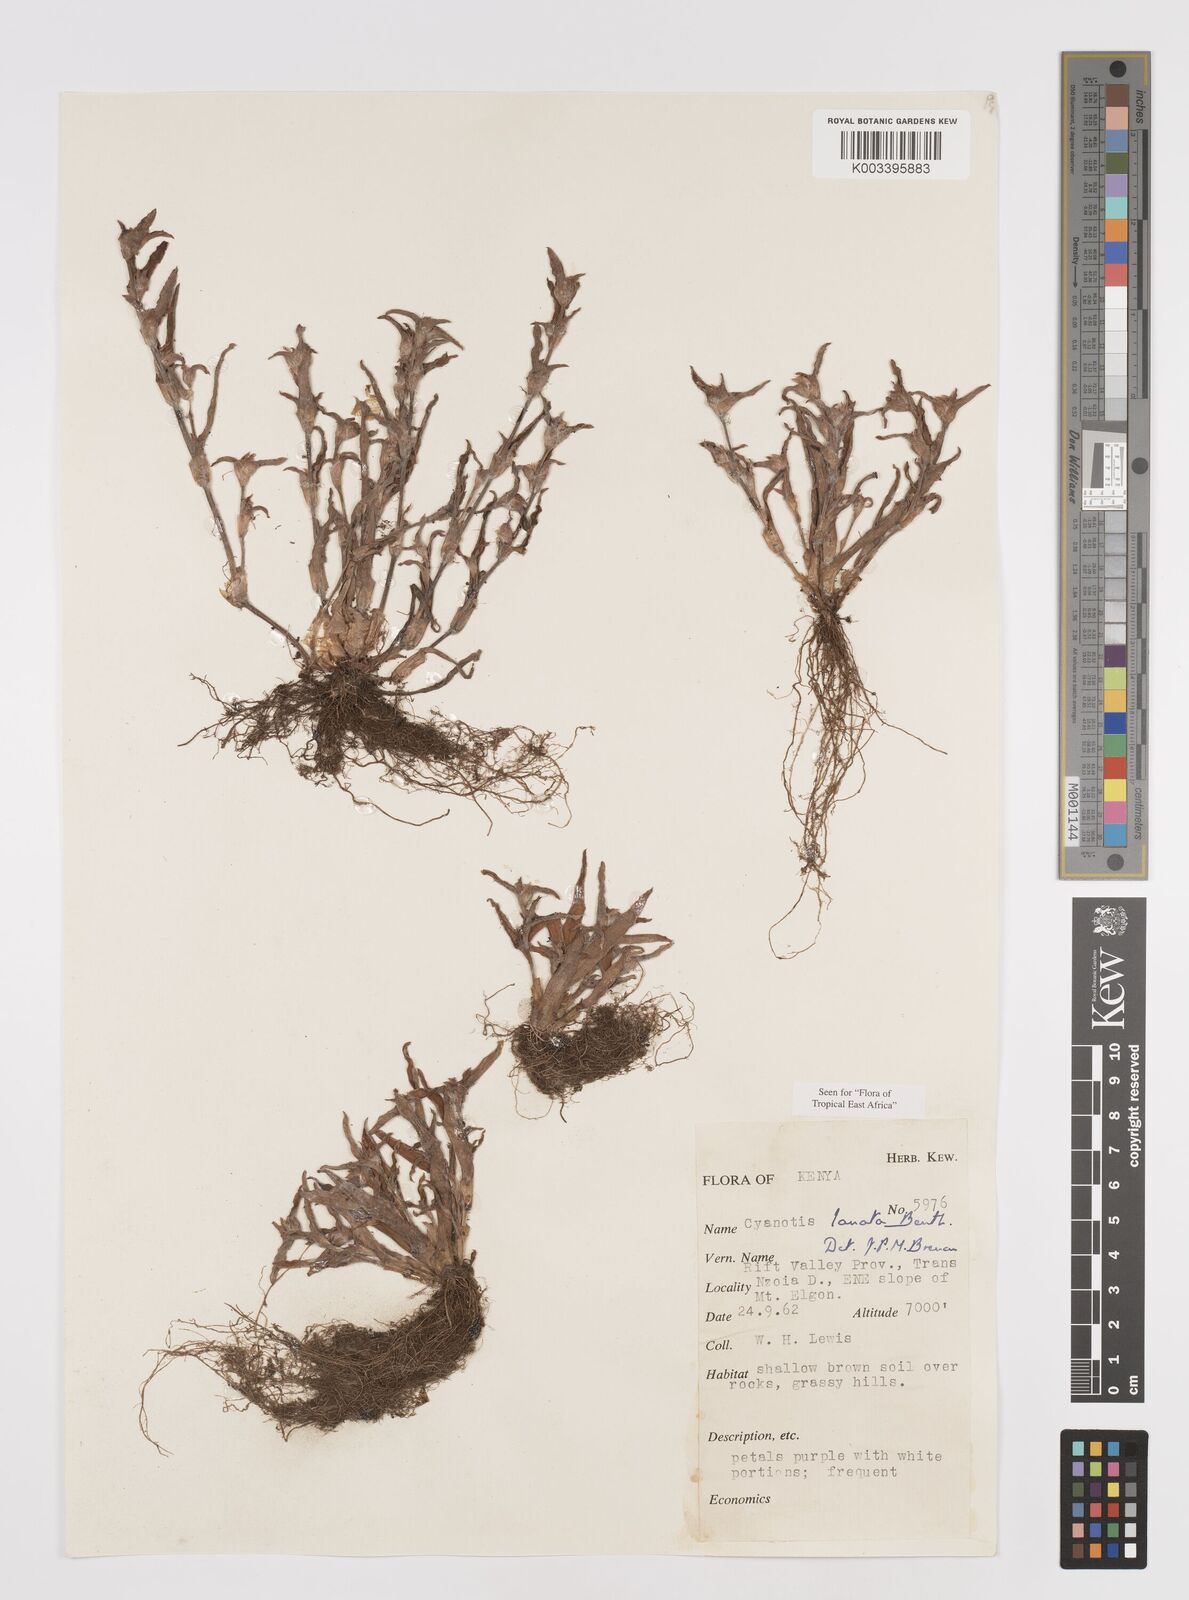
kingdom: Plantae
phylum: Tracheophyta
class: Liliopsida
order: Commelinales
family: Commelinaceae
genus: Cyanotis
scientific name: Cyanotis lanata
